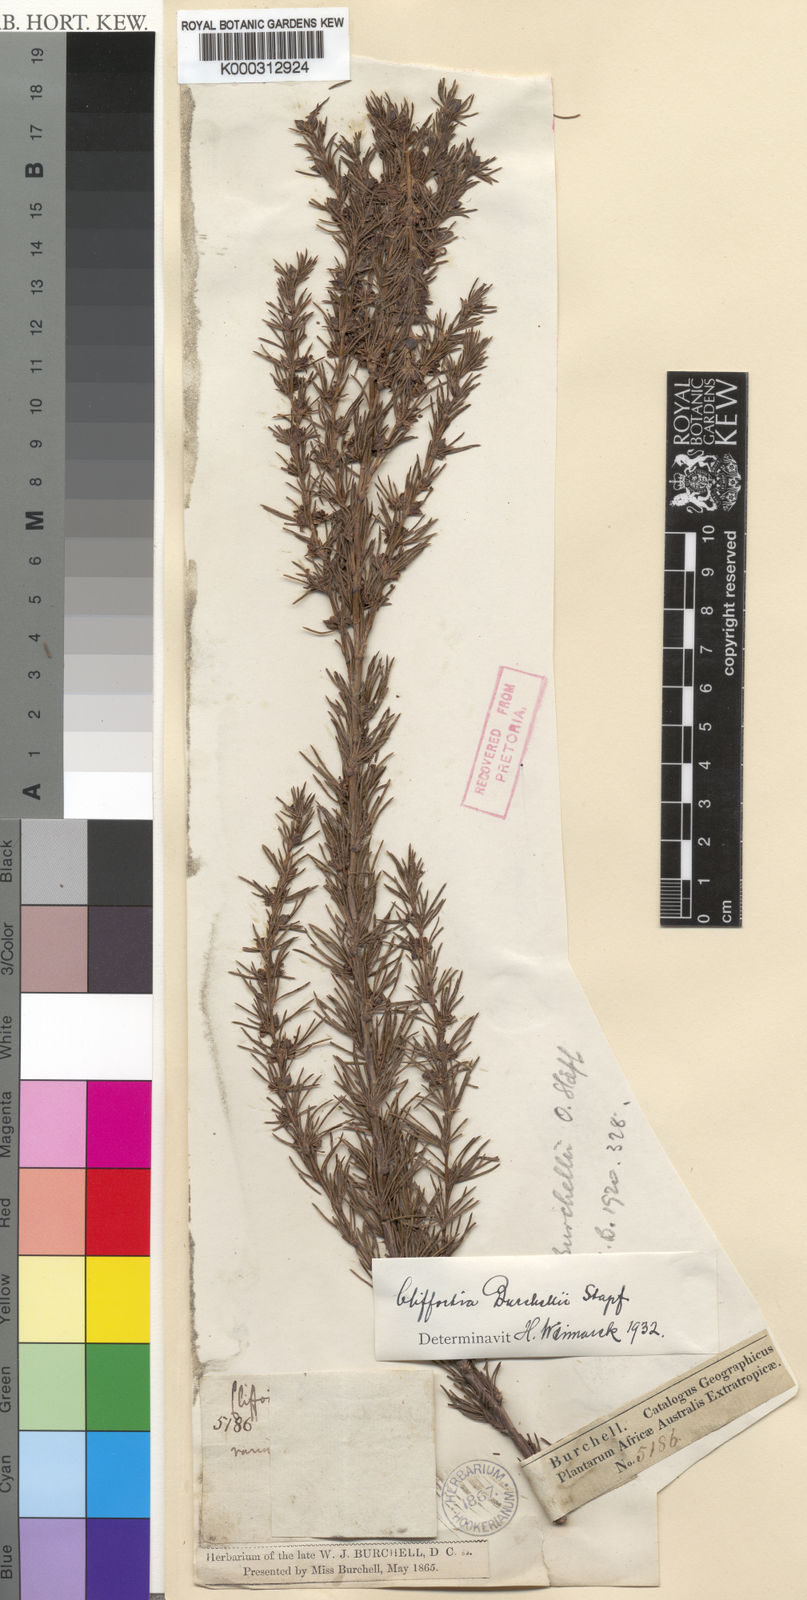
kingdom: Plantae
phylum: Tracheophyta
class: Magnoliopsida
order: Rosales
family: Rosaceae
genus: Cliffortia
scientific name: Cliffortia tuberculata
